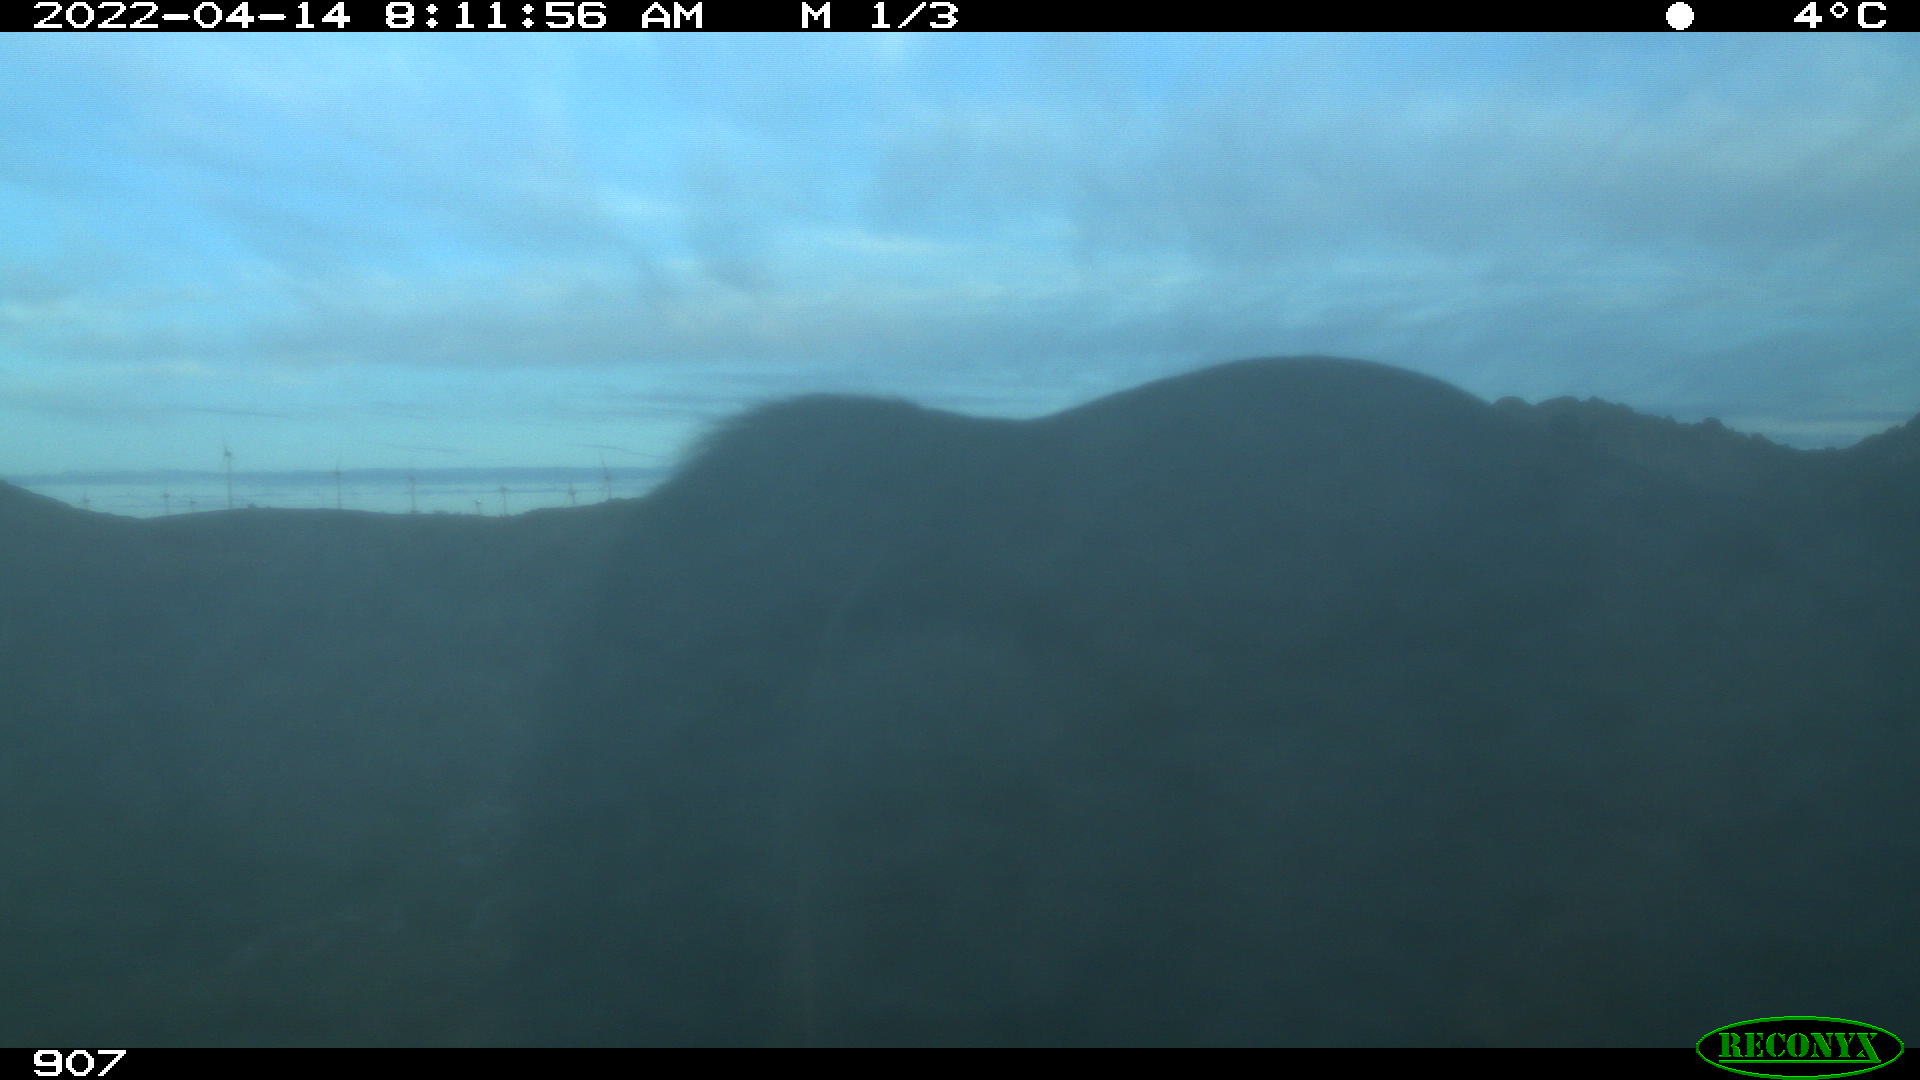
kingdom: Animalia
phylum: Chordata
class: Mammalia
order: Perissodactyla
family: Equidae
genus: Equus
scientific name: Equus caballus
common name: Horse
